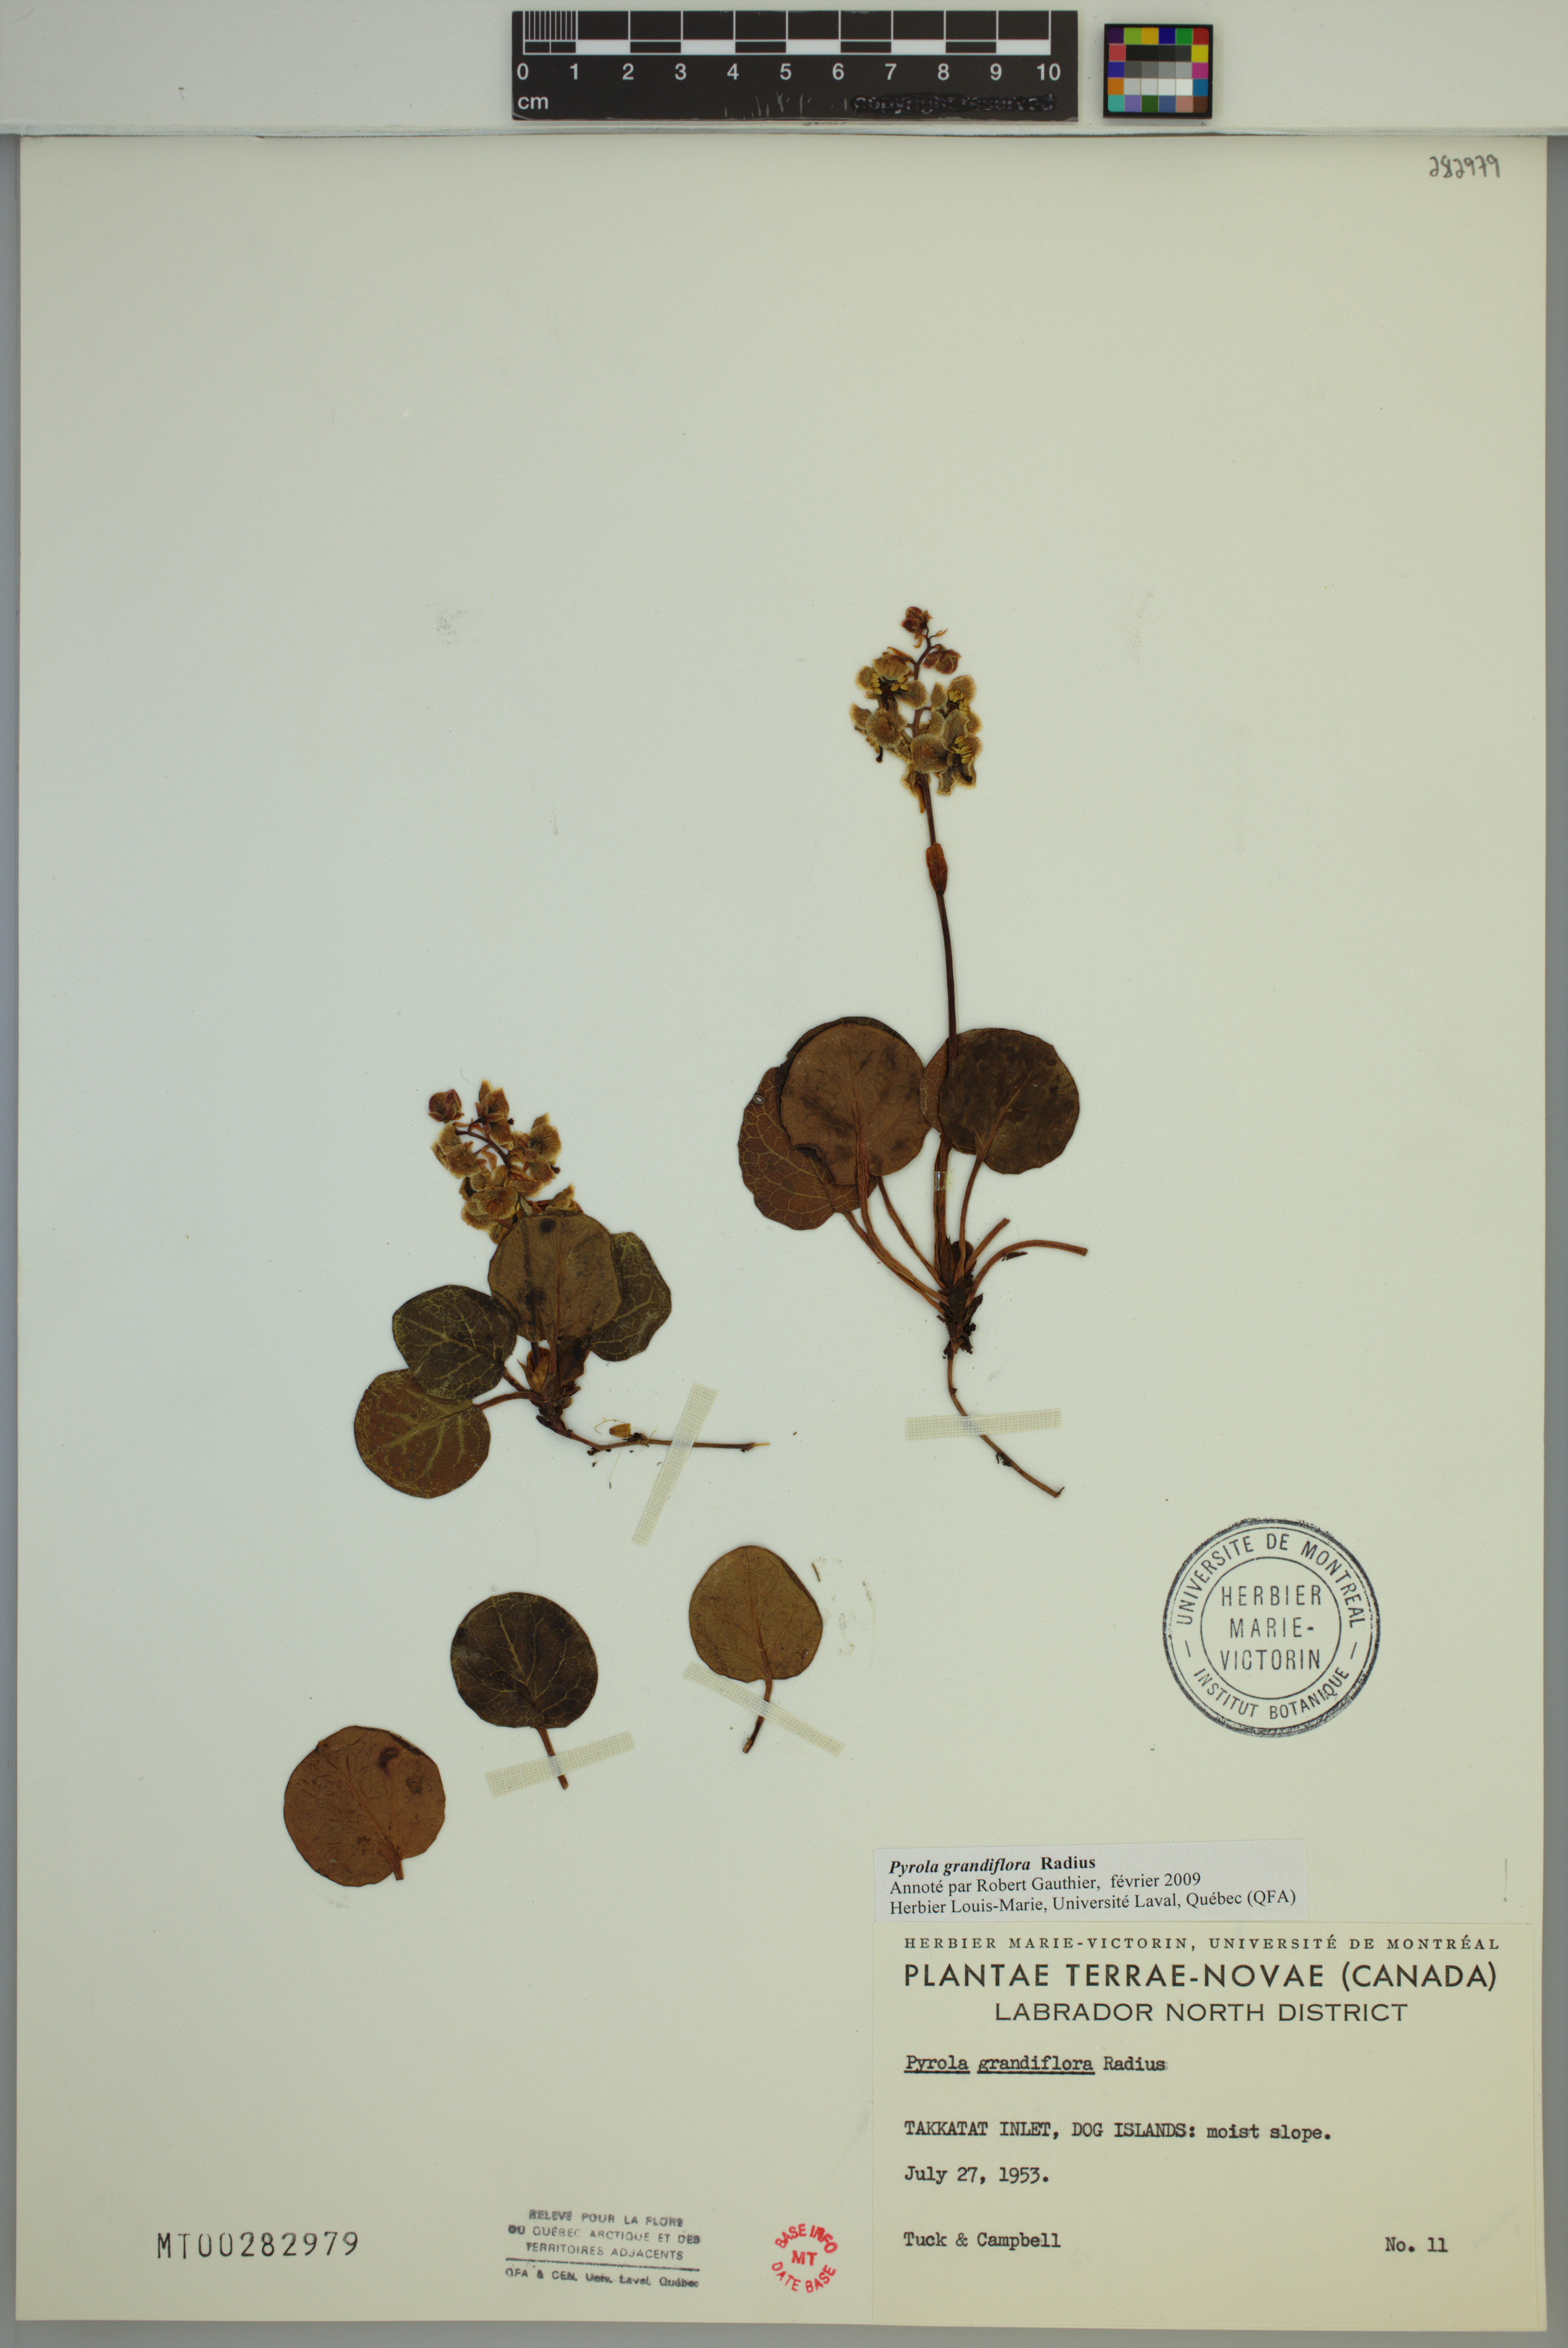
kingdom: Plantae
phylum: Tracheophyta
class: Magnoliopsida
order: Ericales
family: Ericaceae
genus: Pyrola
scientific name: Pyrola grandiflora
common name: Arctic pyrola
